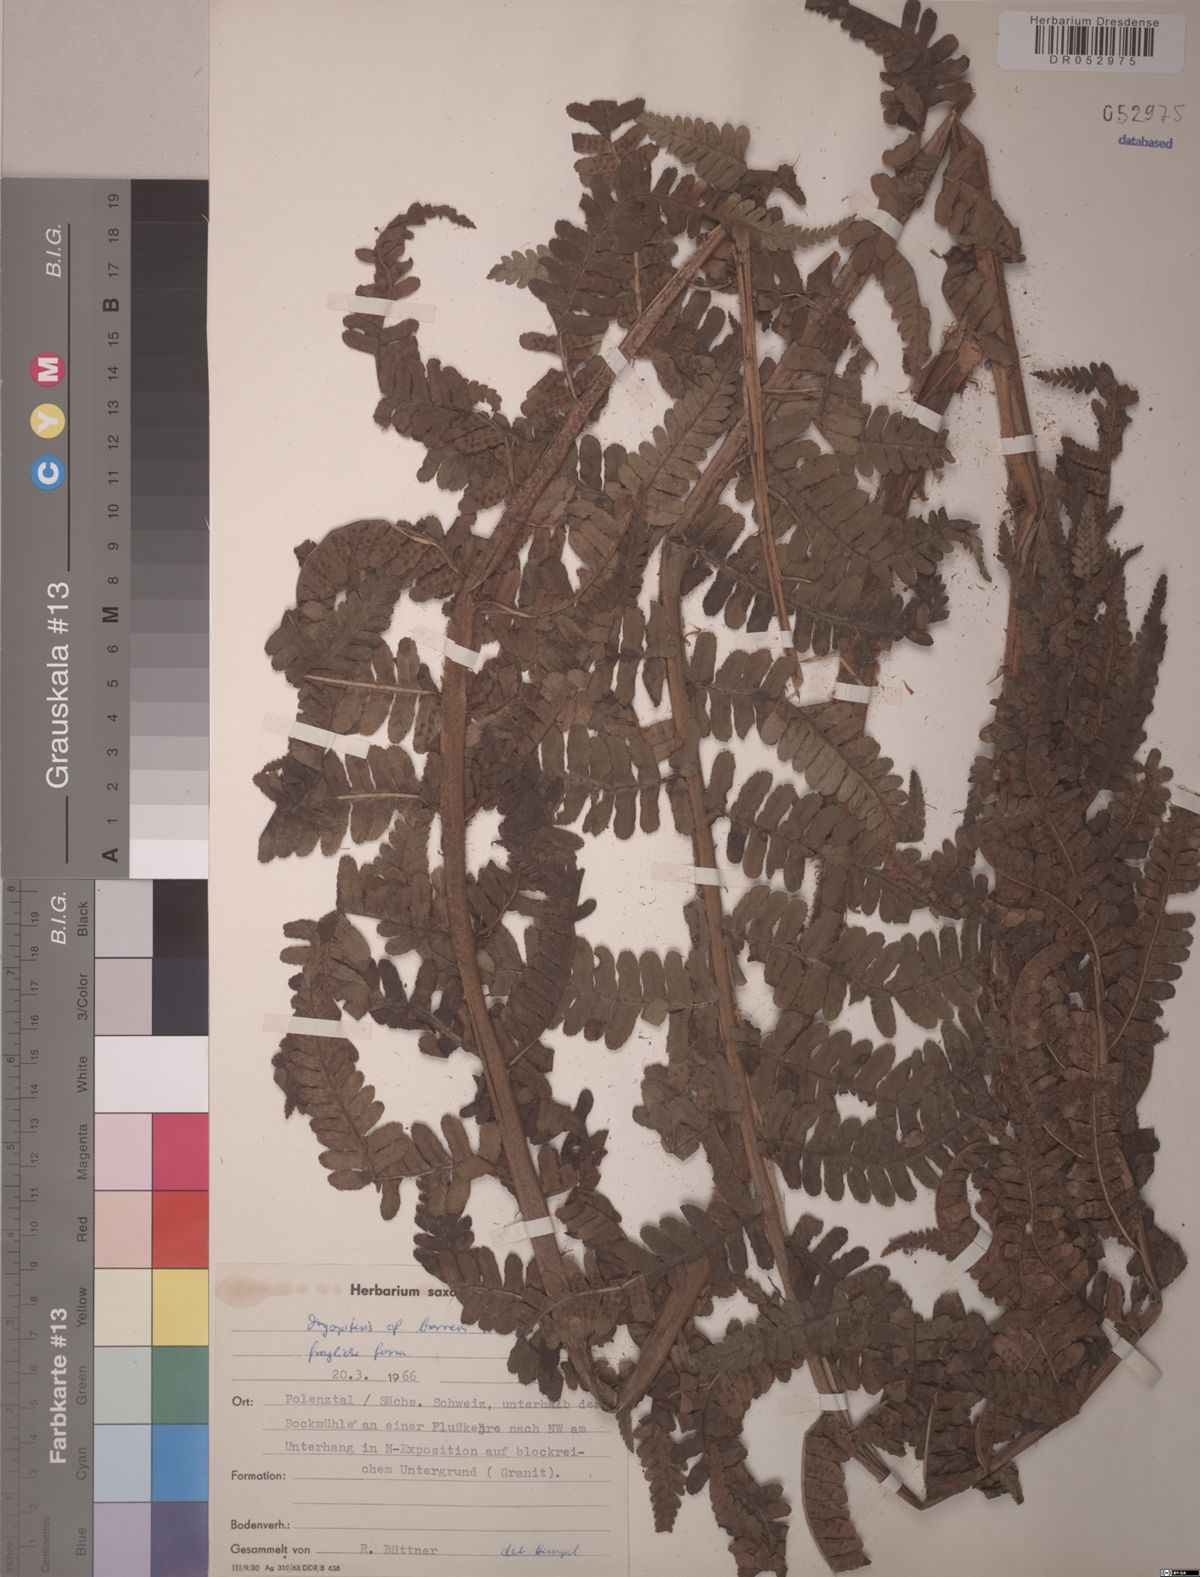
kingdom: Plantae
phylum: Tracheophyta
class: Polypodiopsida
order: Polypodiales
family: Dryopteridaceae
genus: Dryopteris
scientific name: Dryopteris borreri
